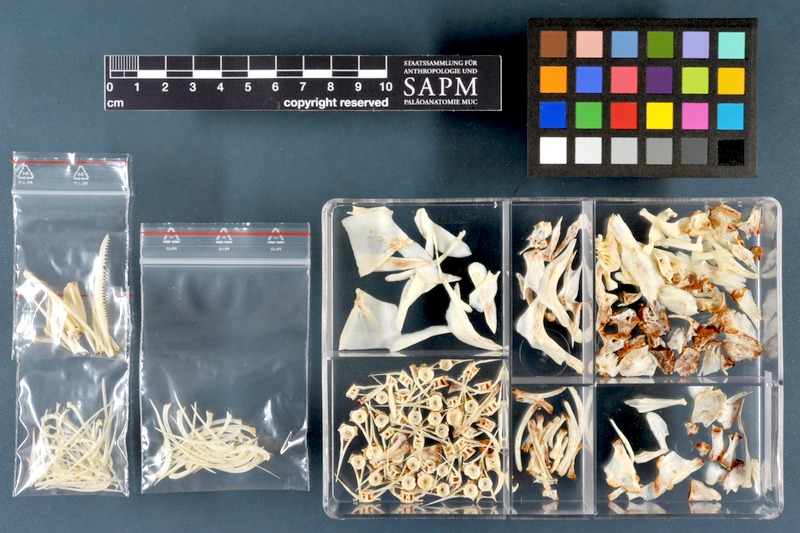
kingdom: Animalia
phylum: Chordata
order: Cypriniformes
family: Cyprinidae
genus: Luciobarbus
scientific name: Luciobarbus esocinus
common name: Pike barbel
